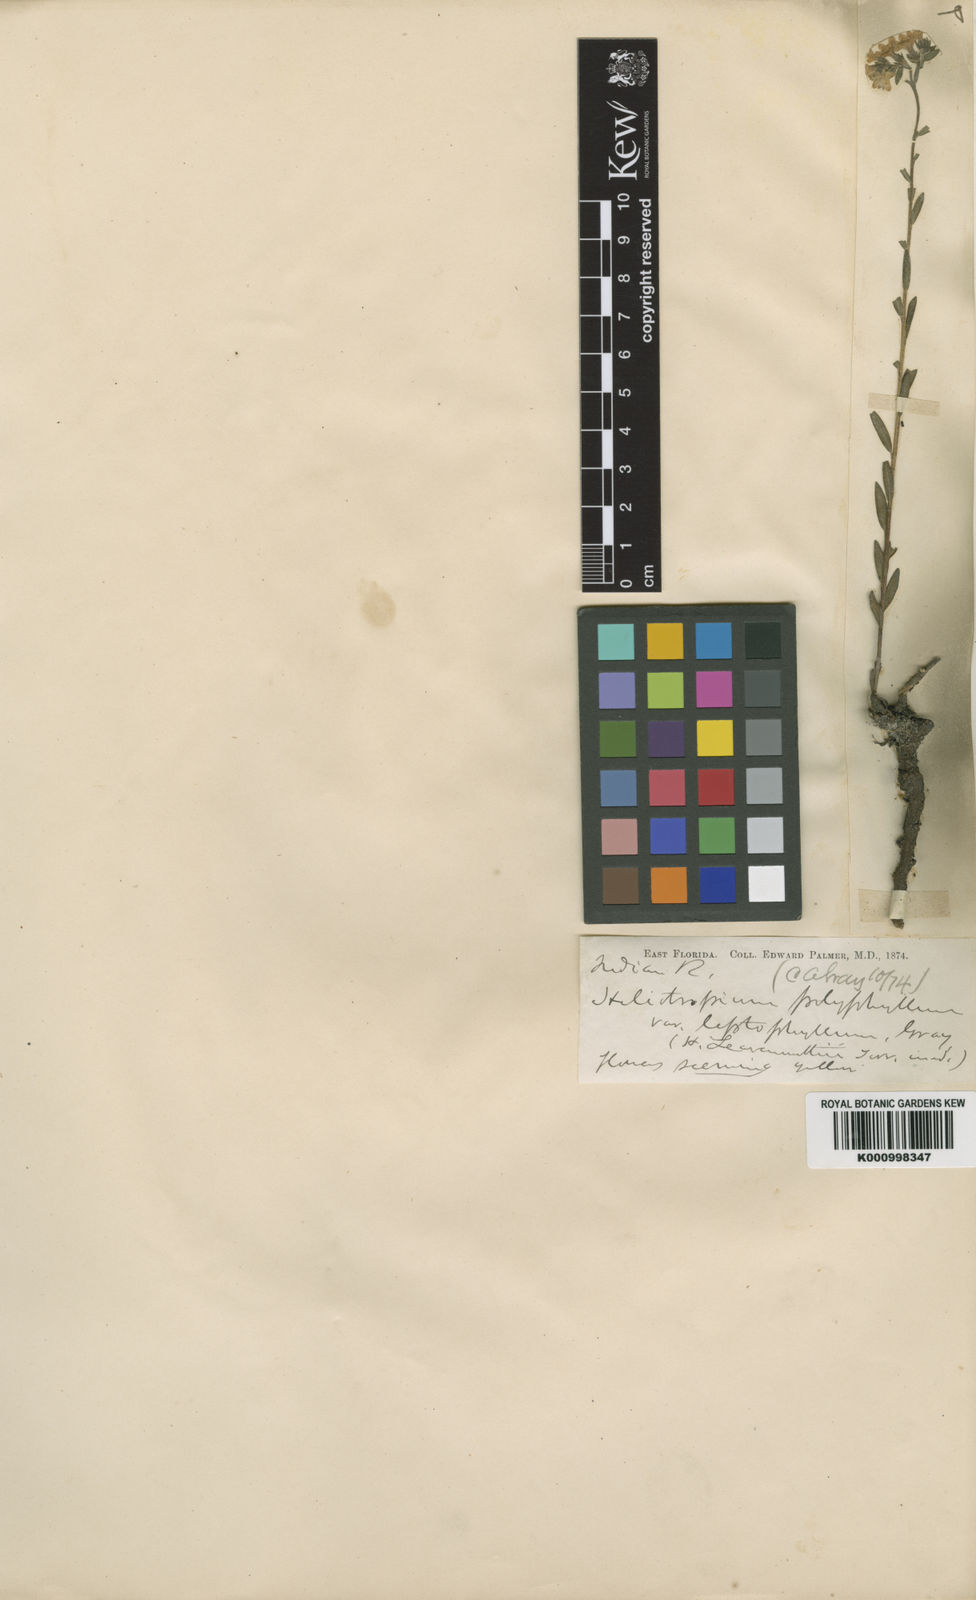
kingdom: Plantae
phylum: Tracheophyta
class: Magnoliopsida
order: Boraginales
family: Heliotropiaceae
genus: Euploca
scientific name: Euploca polyphylla
